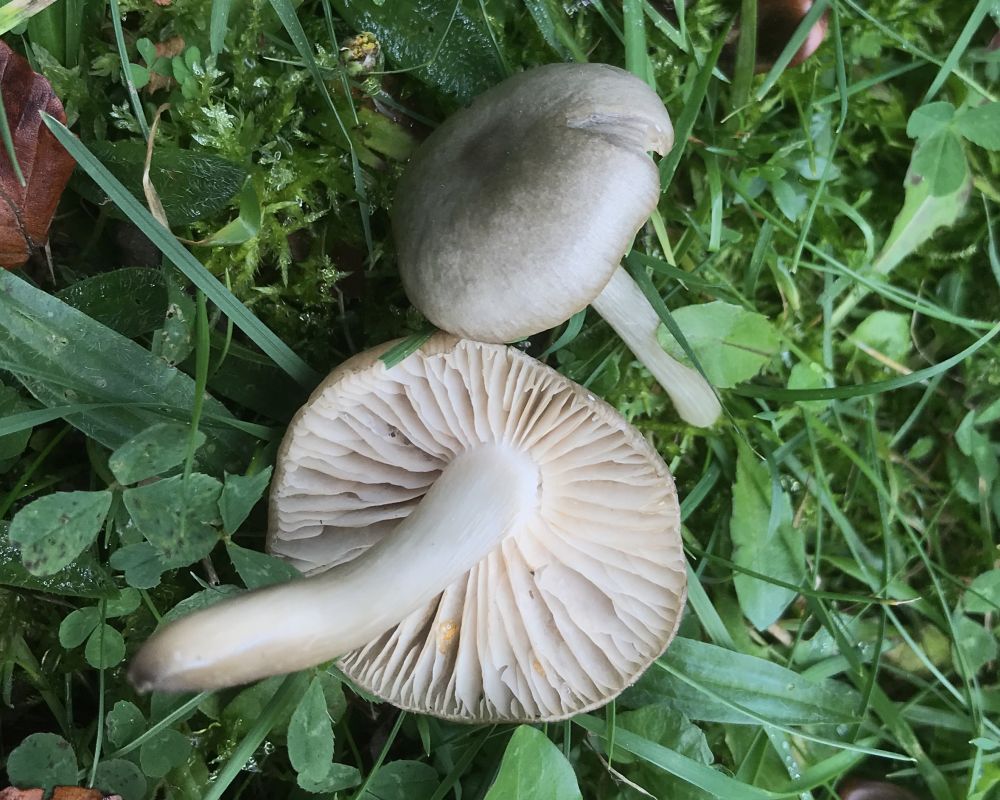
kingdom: Fungi
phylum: Basidiomycota
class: Agaricomycetes
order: Agaricales
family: Tricholomataceae
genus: Tricholoma
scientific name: Tricholoma
